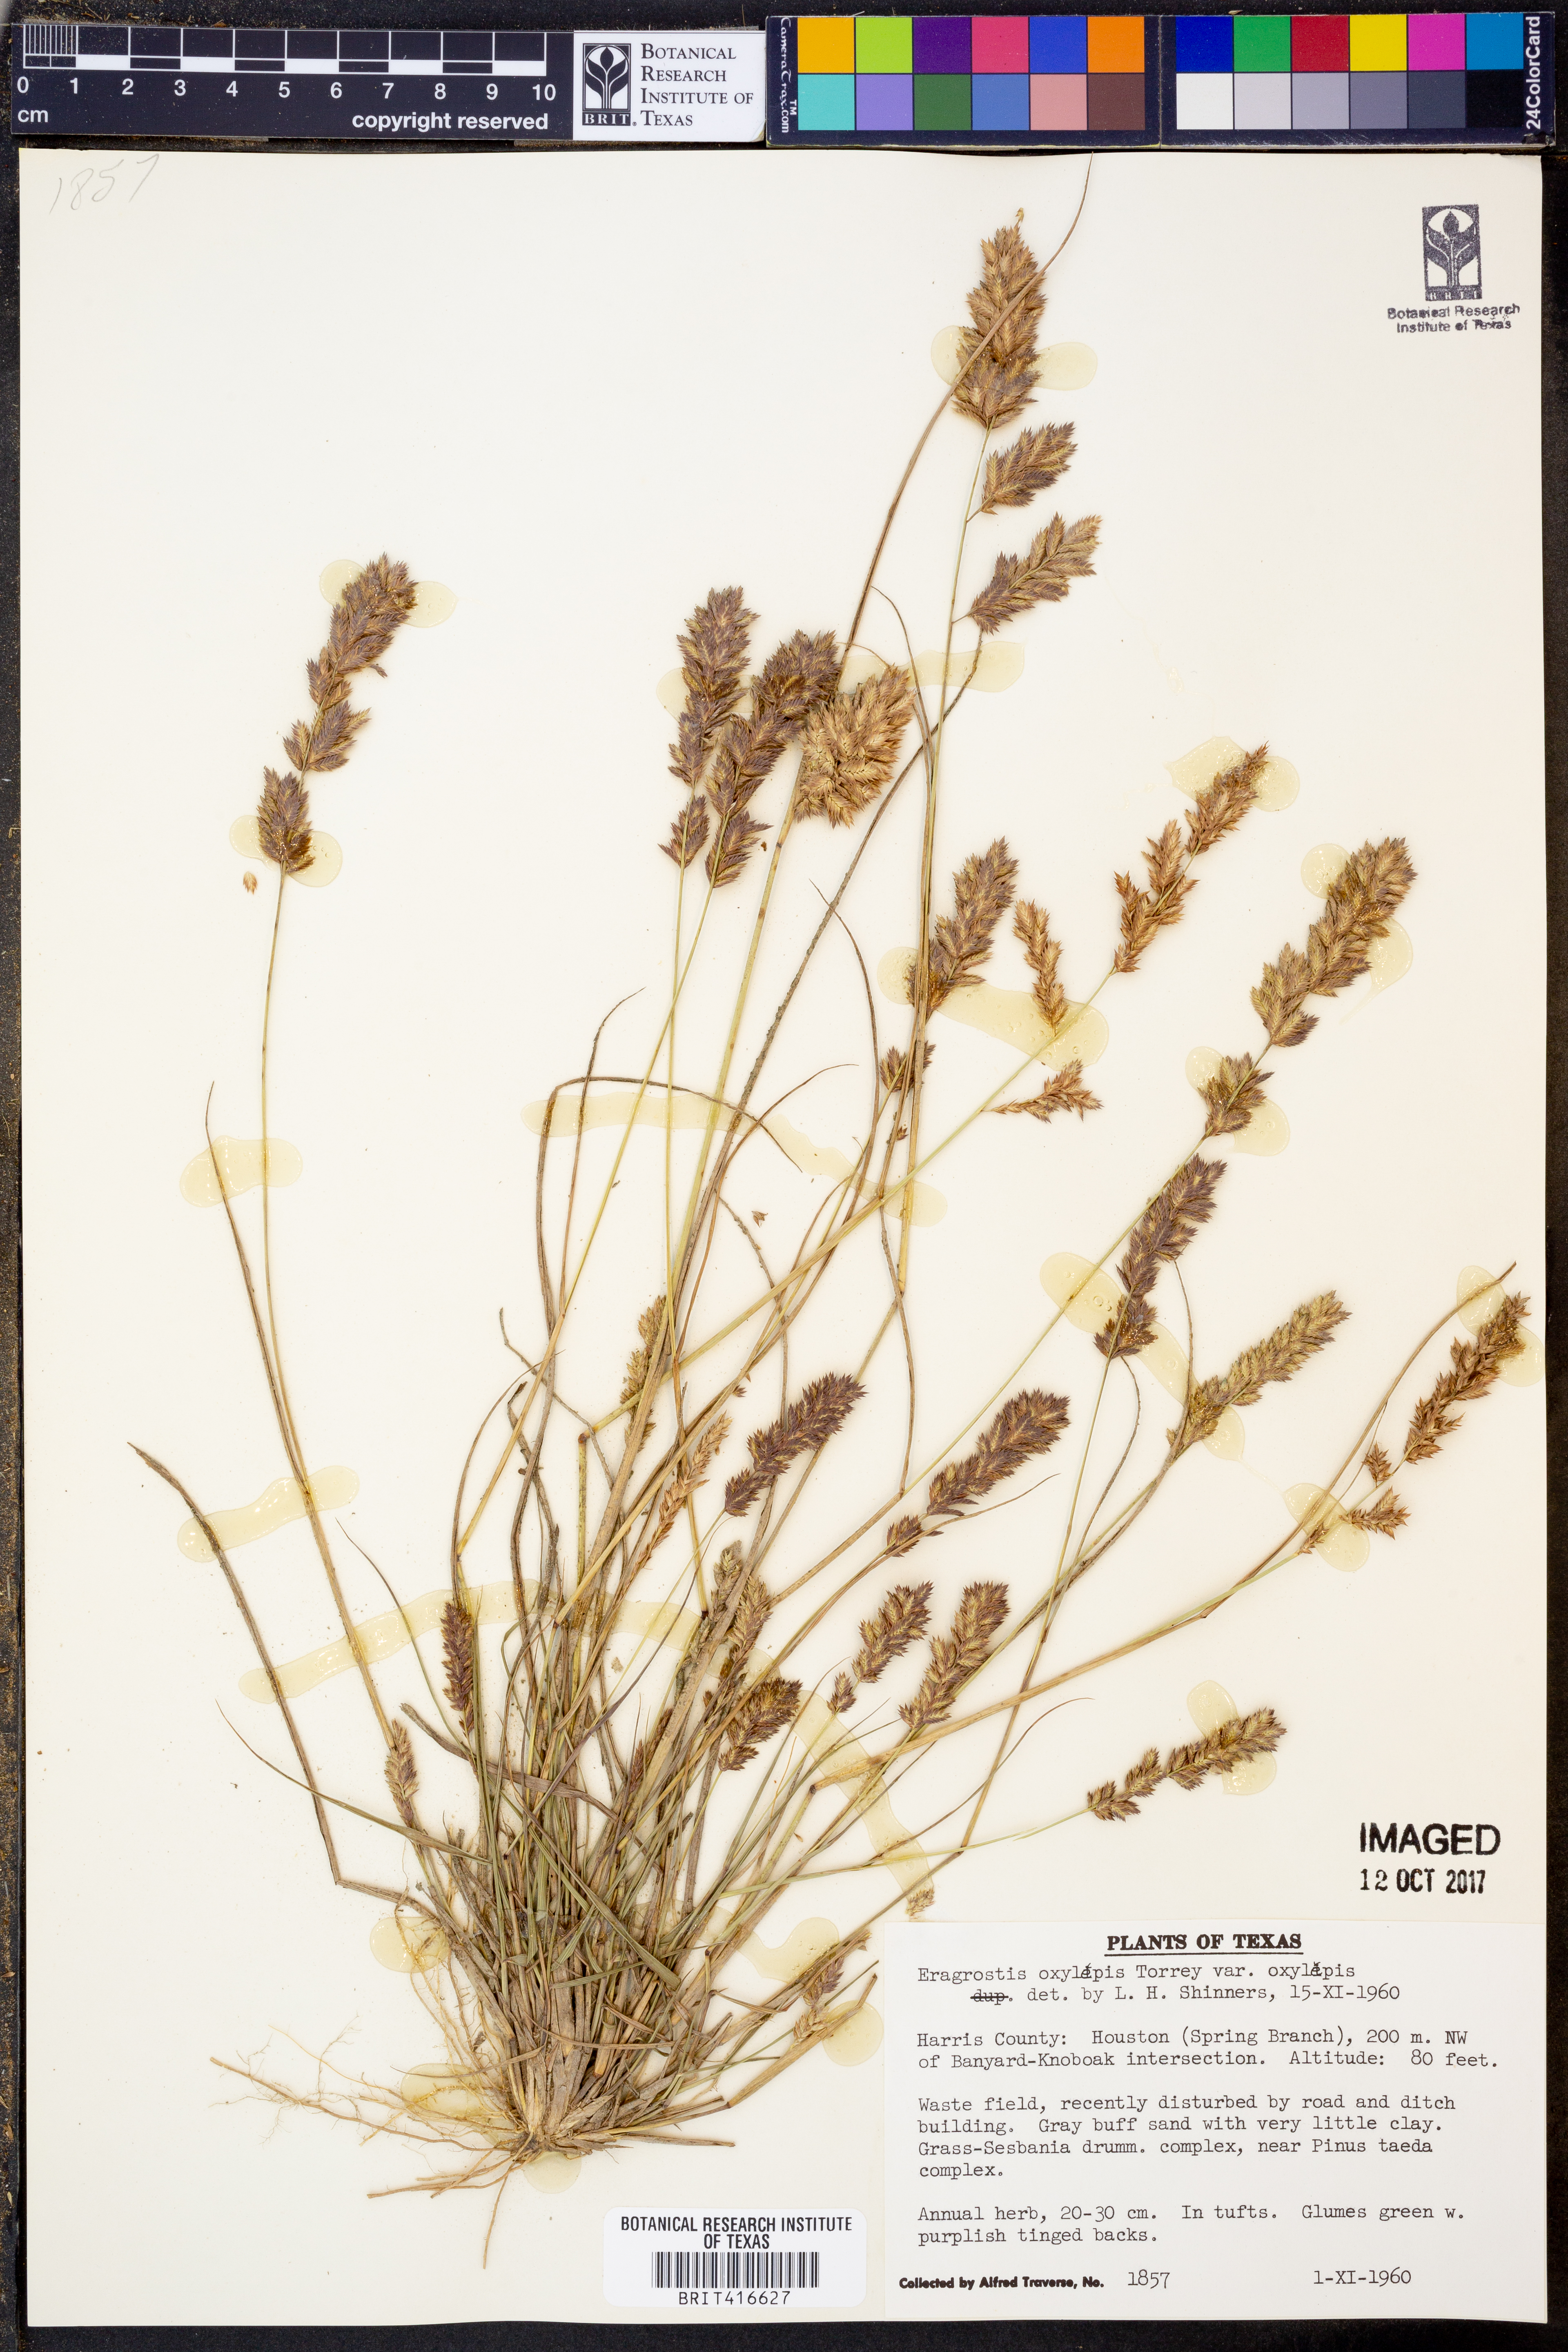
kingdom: Plantae
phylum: Tracheophyta
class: Liliopsida
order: Poales
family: Poaceae
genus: Eragrostis
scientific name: Eragrostis secundiflora
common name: Red love grass
